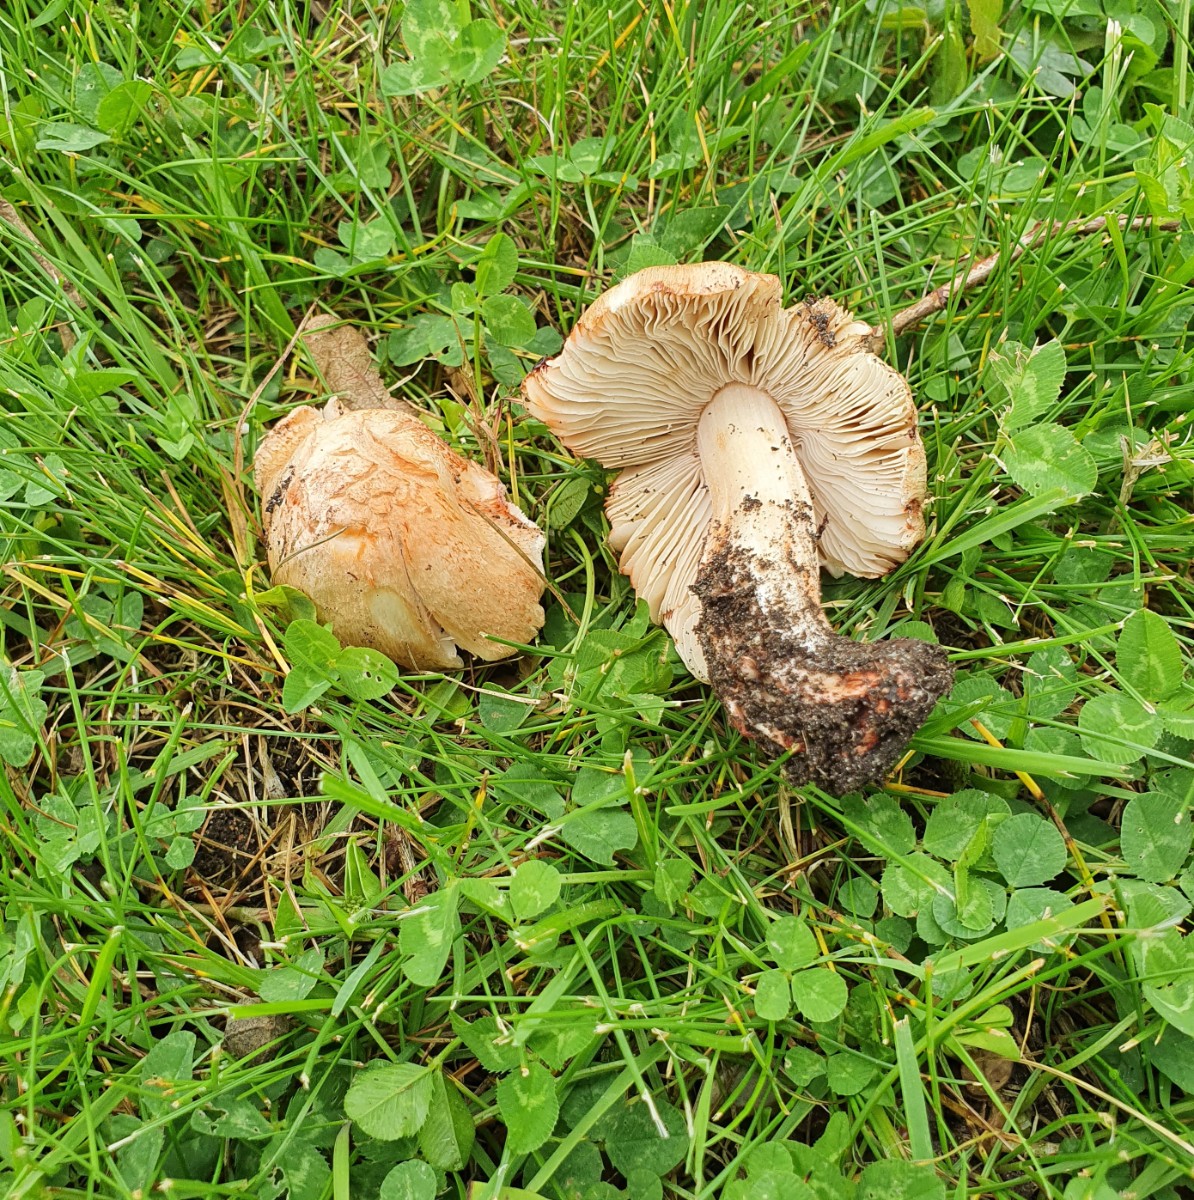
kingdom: Fungi
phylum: Basidiomycota
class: Agaricomycetes
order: Agaricales
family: Inocybaceae
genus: Inosperma
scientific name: Inosperma erubescens
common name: giftig trævlhat
